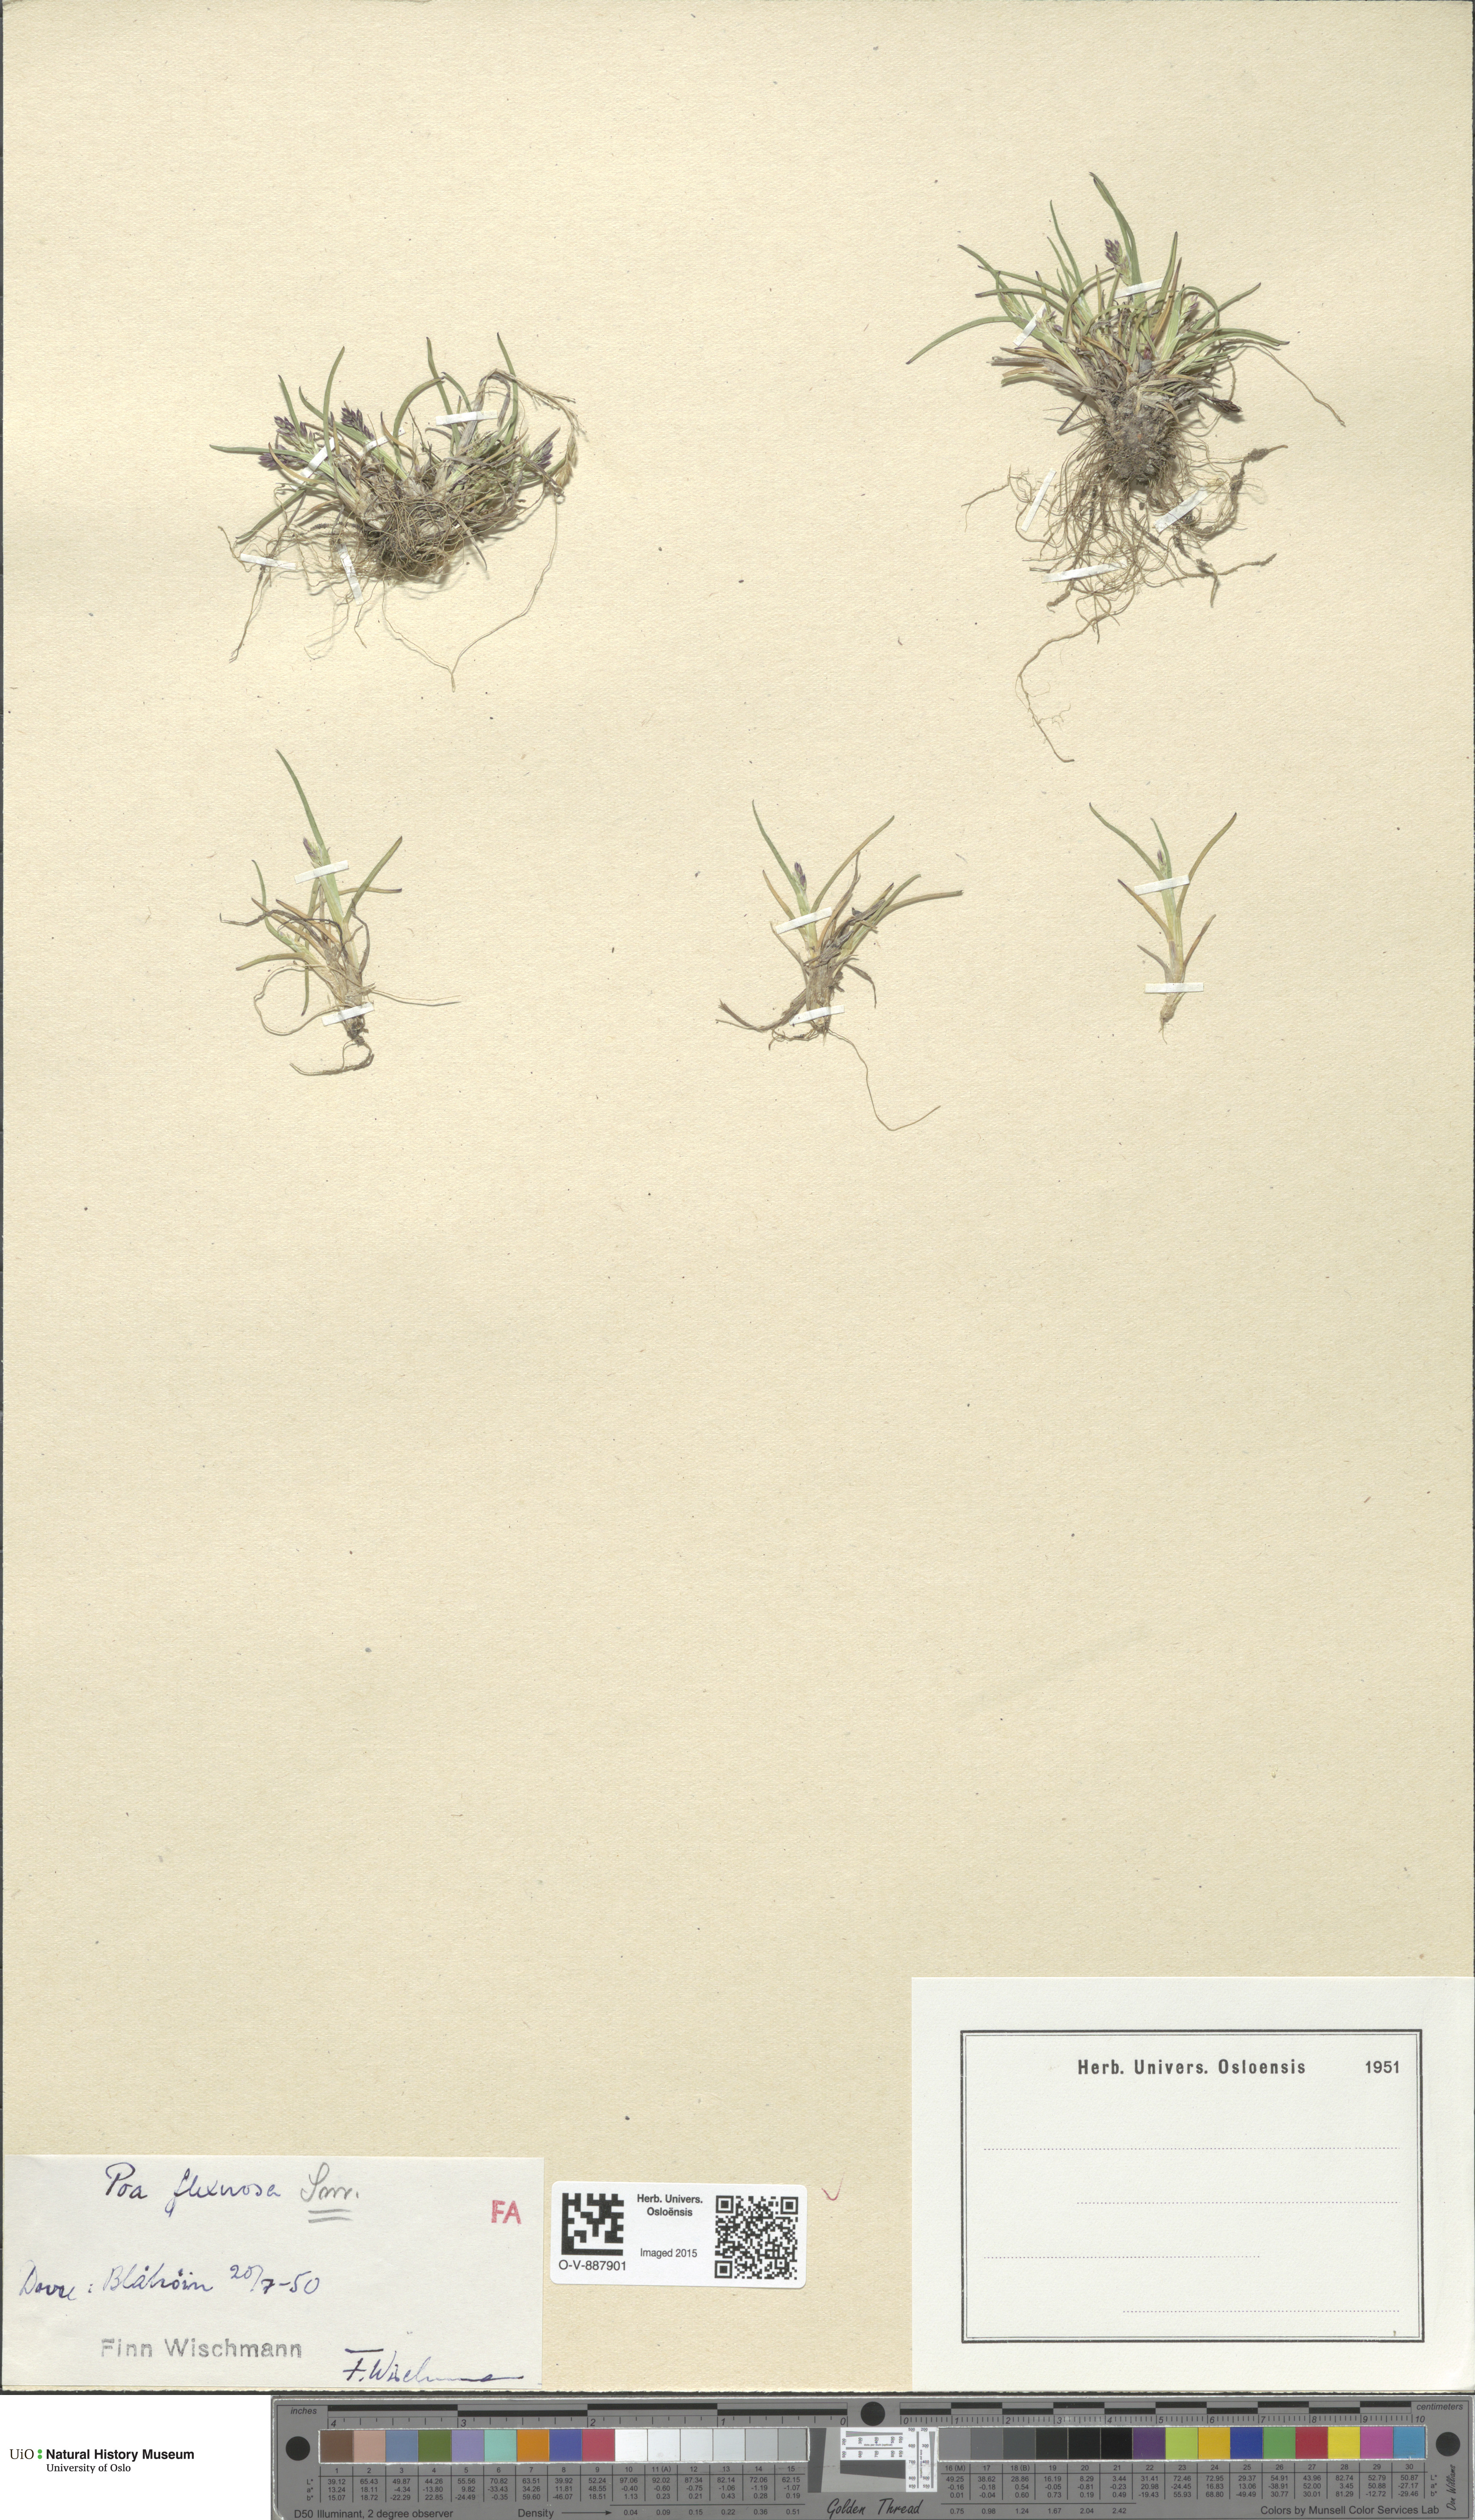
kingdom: Plantae
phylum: Tracheophyta
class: Liliopsida
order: Poales
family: Poaceae
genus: Poa
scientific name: Poa flexuosa
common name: Wavy meadow-grass
